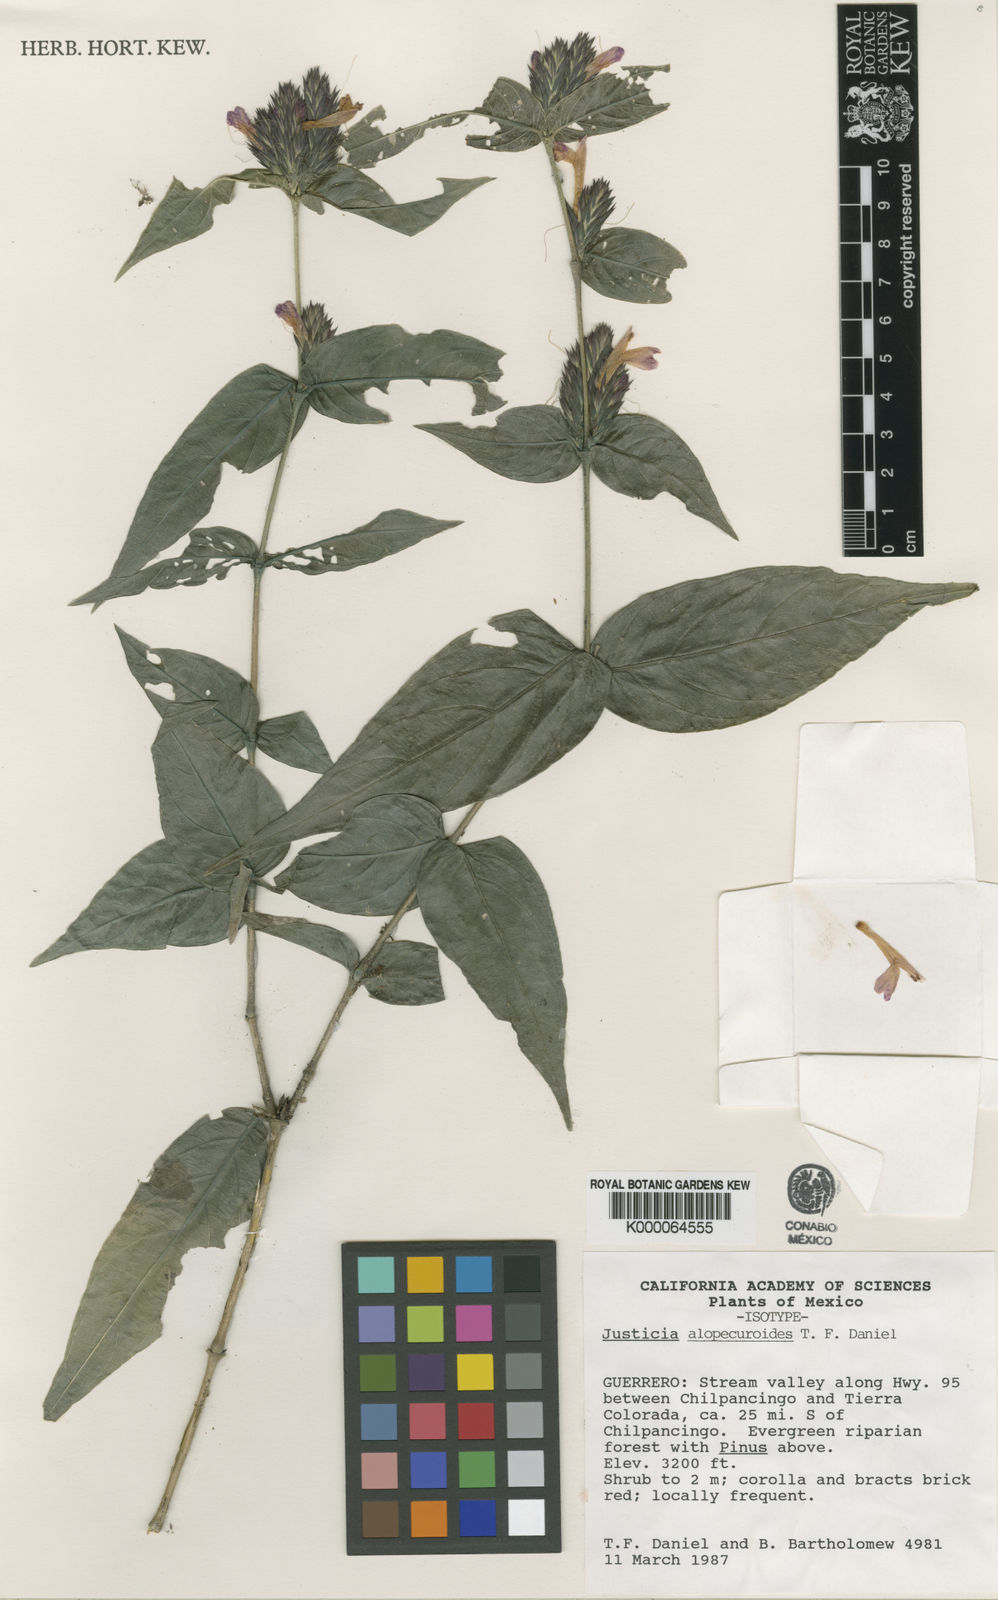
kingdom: Plantae
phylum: Tracheophyta
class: Magnoliopsida
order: Lamiales
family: Acanthaceae
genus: Justicia
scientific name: Justicia
